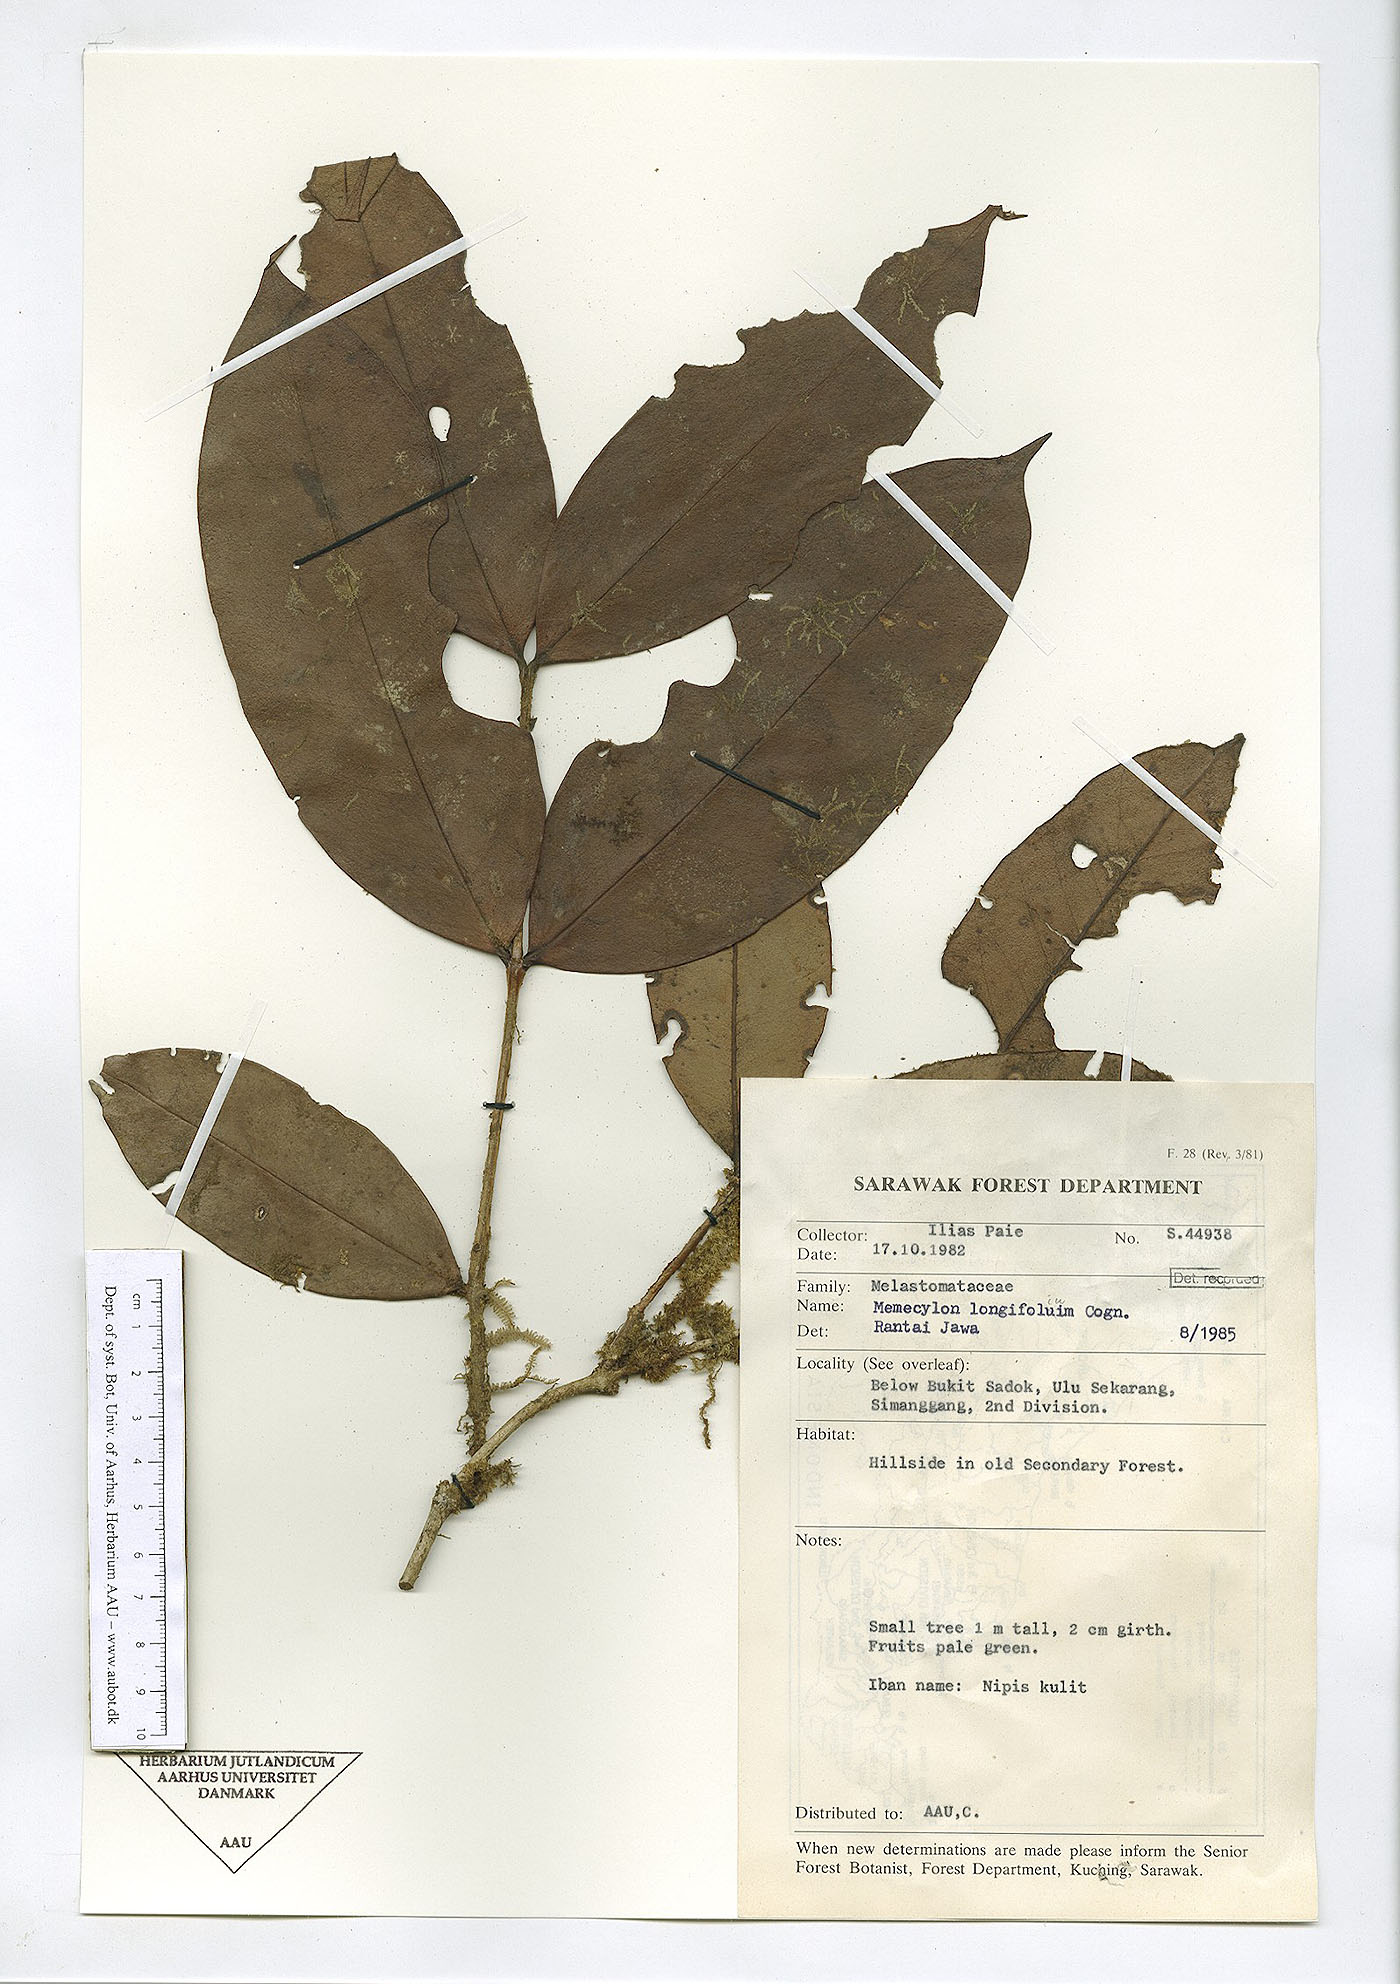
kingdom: Plantae
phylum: Tracheophyta
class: Magnoliopsida
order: Myrtales
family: Melastomataceae
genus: Memecylon
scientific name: Memecylon longifolium
